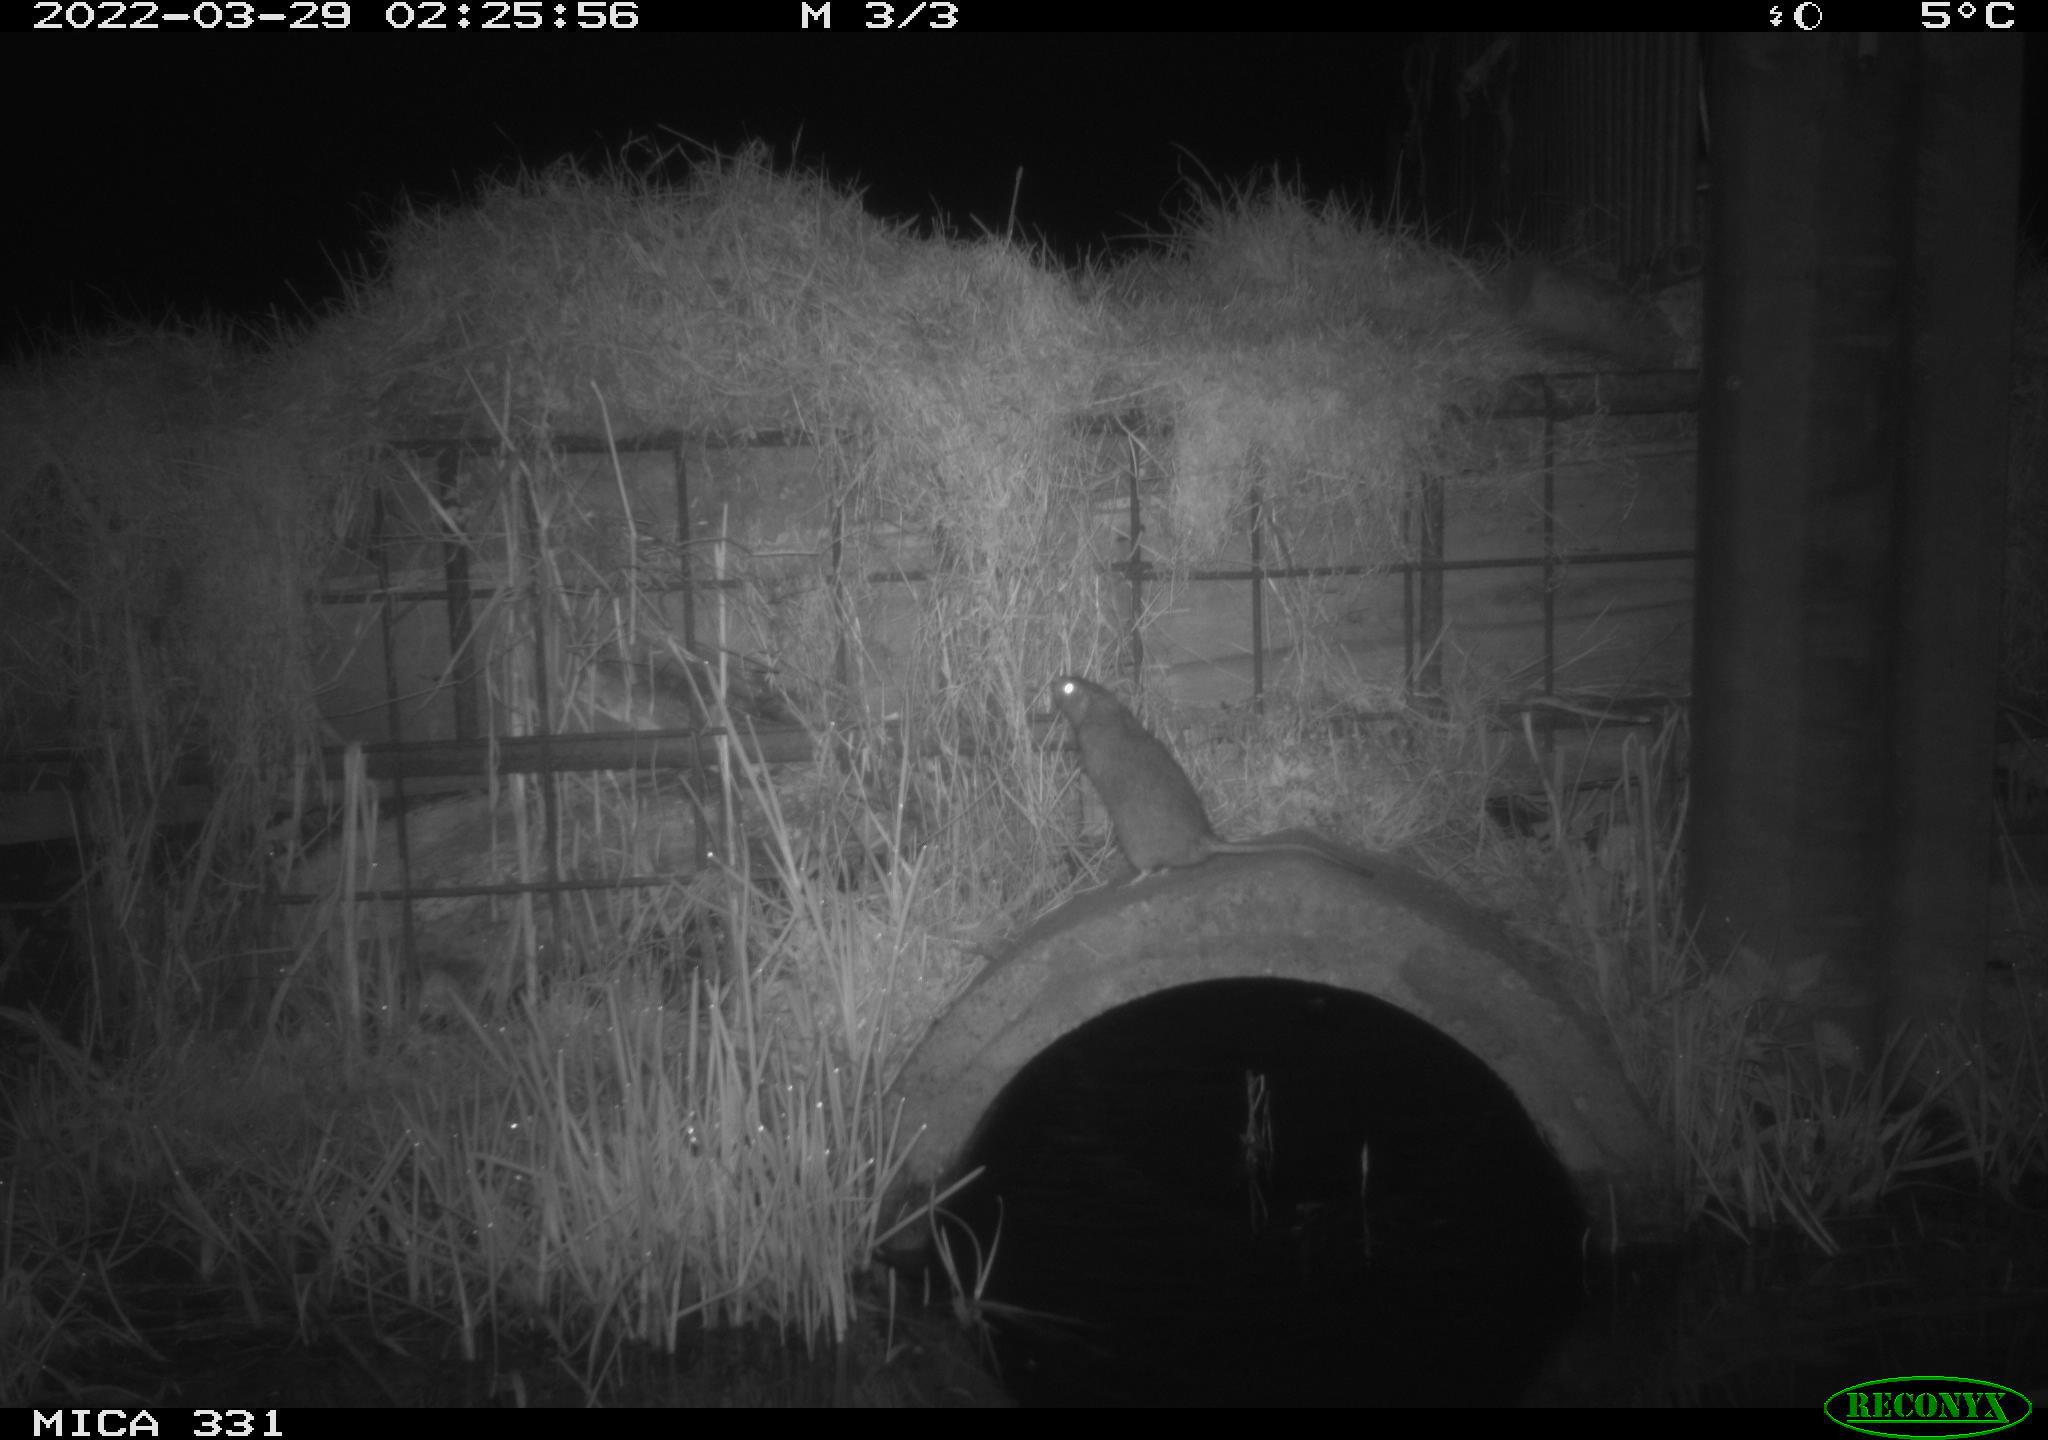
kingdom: Animalia
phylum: Chordata
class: Mammalia
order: Rodentia
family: Muridae
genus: Rattus
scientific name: Rattus norvegicus
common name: Brown rat
